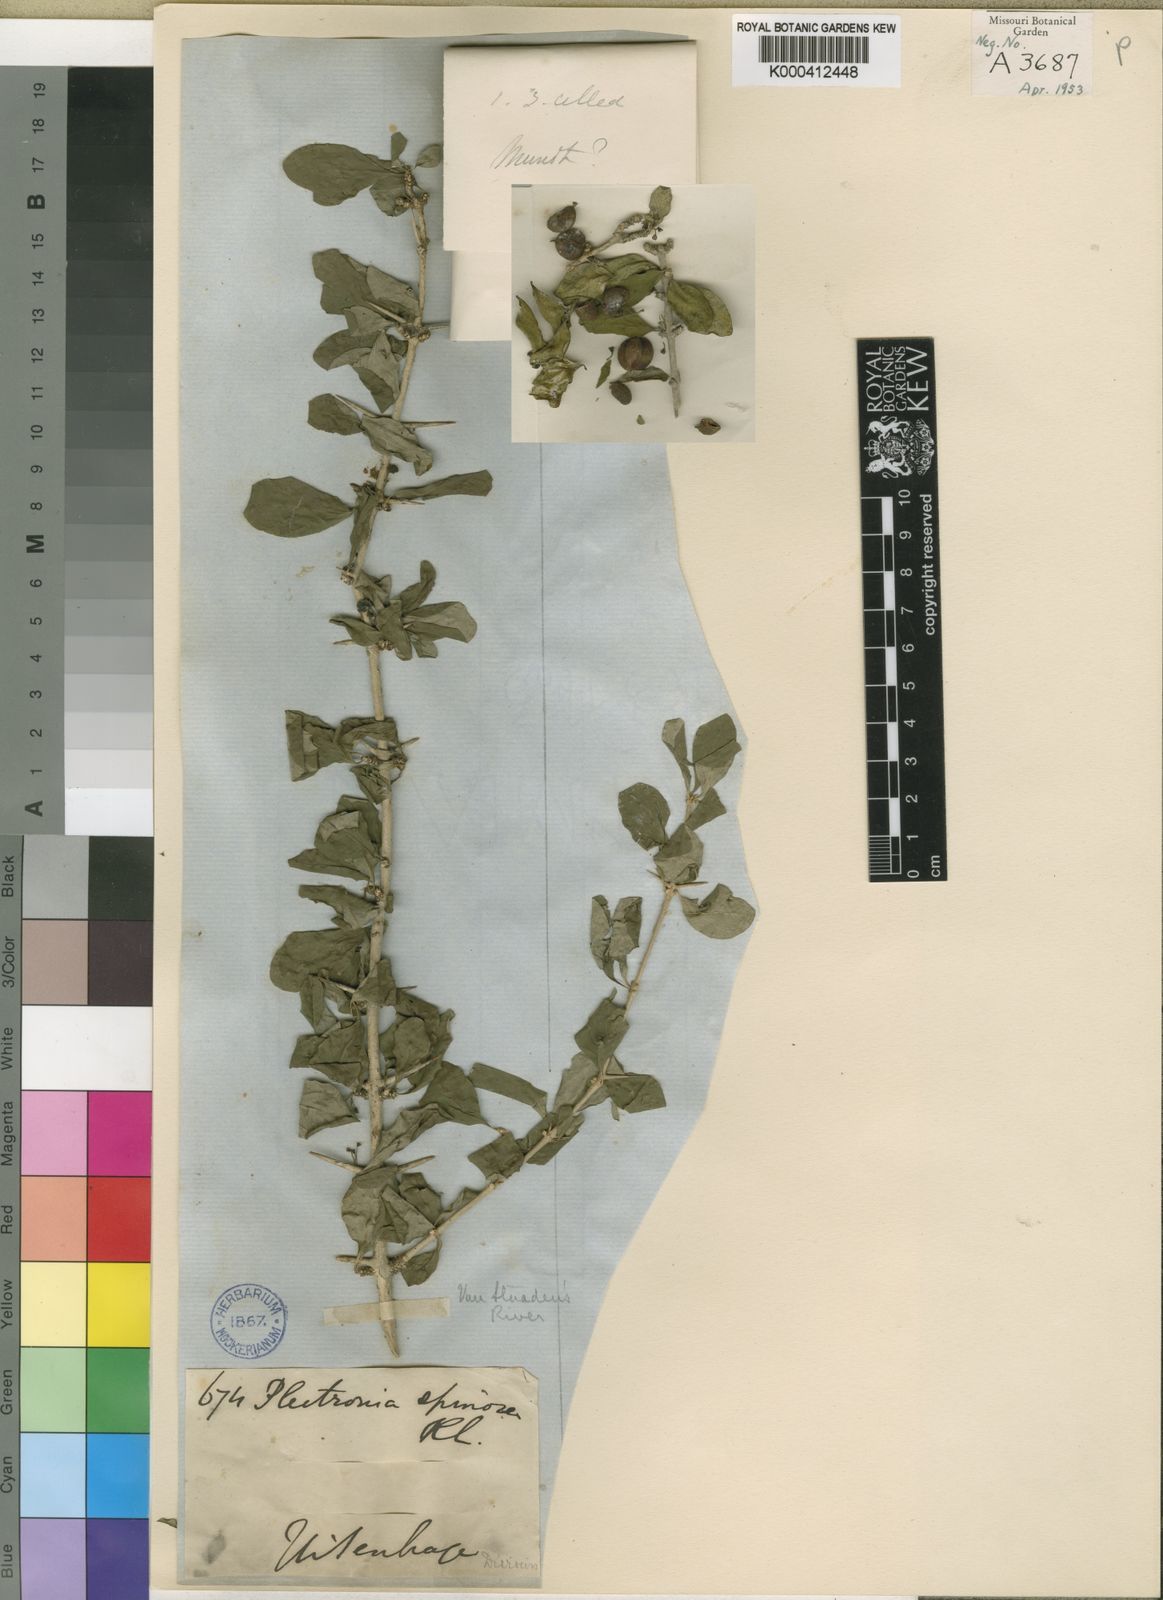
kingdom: Plantae
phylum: Tracheophyta
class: Magnoliopsida
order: Gentianales
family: Rubiaceae
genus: Canthium
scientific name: Canthium spinosum
